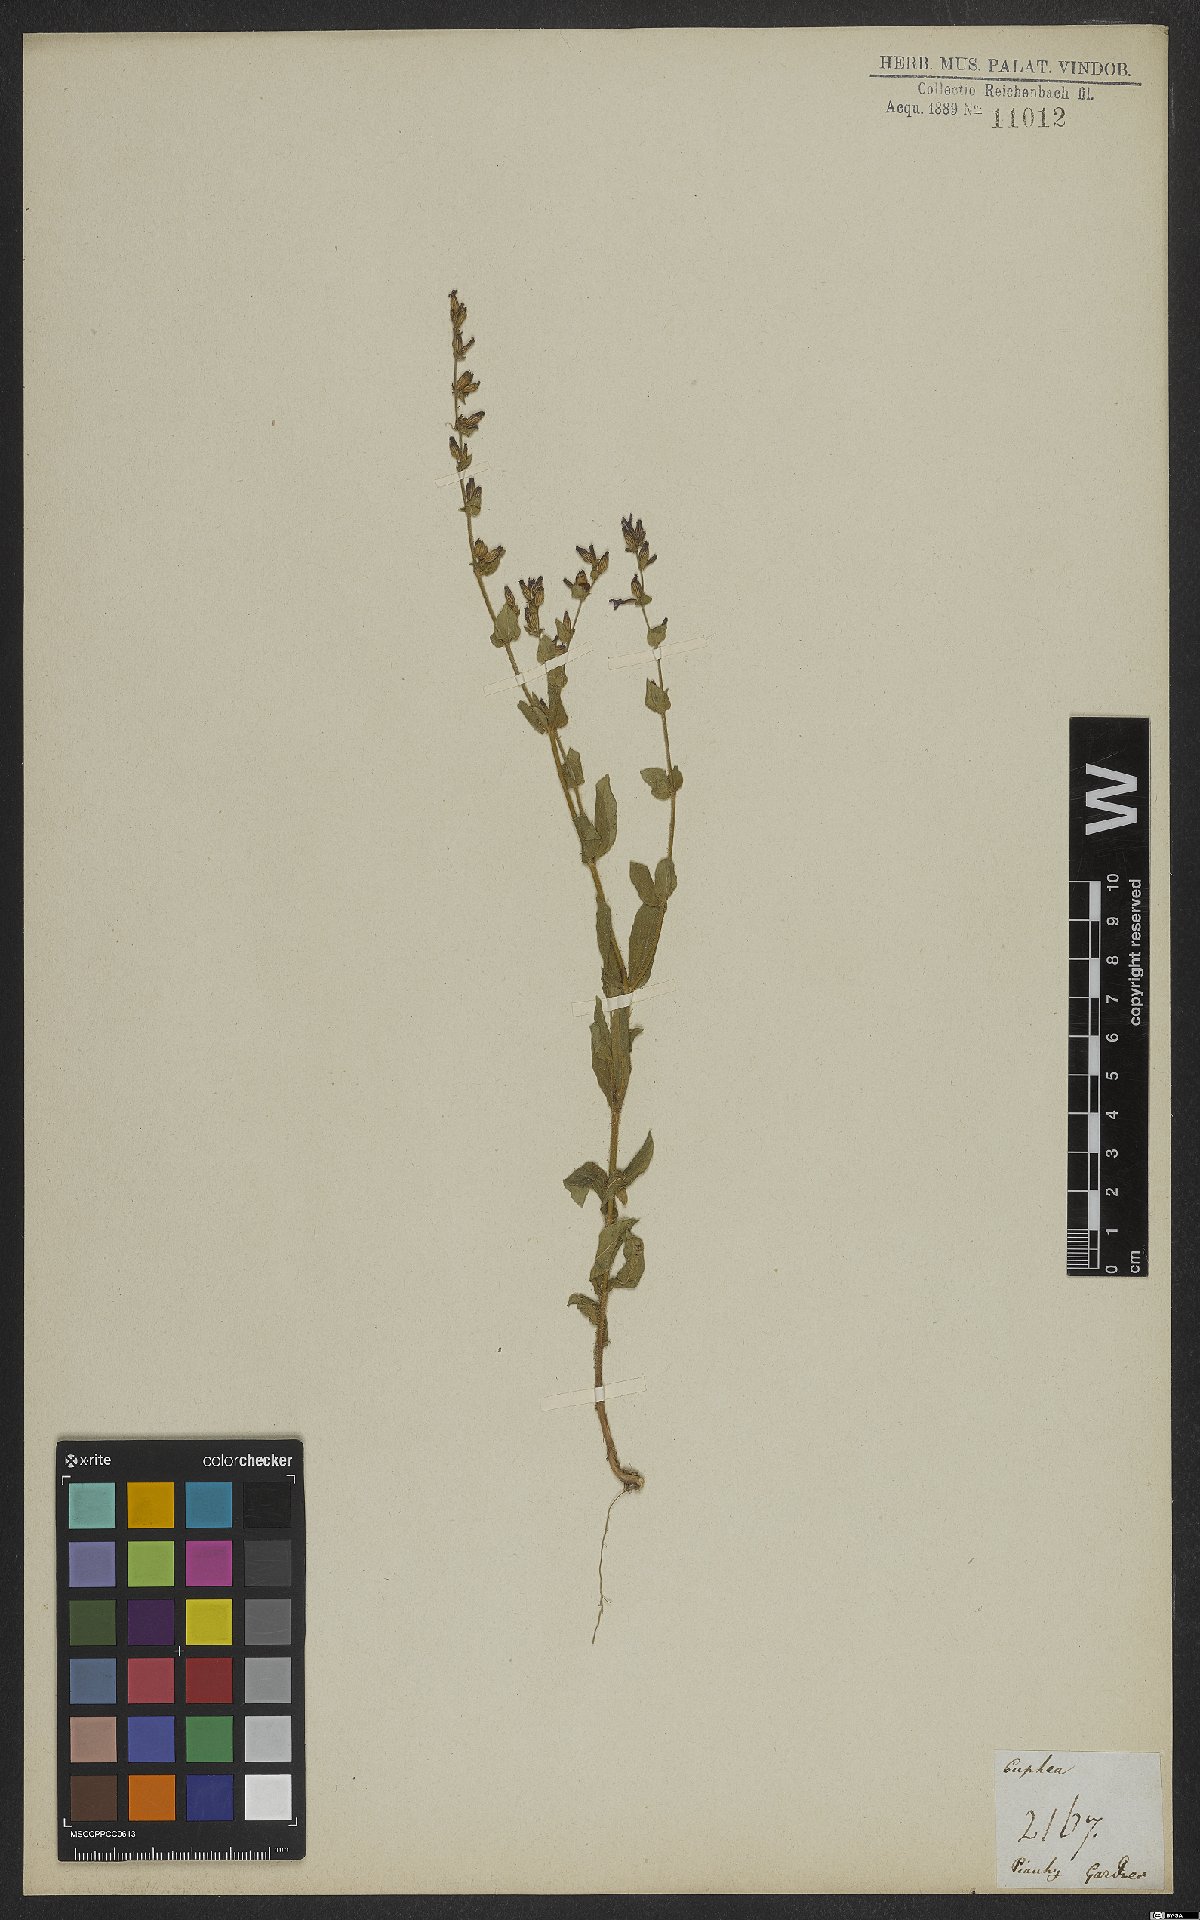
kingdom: Plantae
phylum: Tracheophyta
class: Magnoliopsida
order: Myrtales
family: Lythraceae
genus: Cuphea
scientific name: Cuphea micrantha
